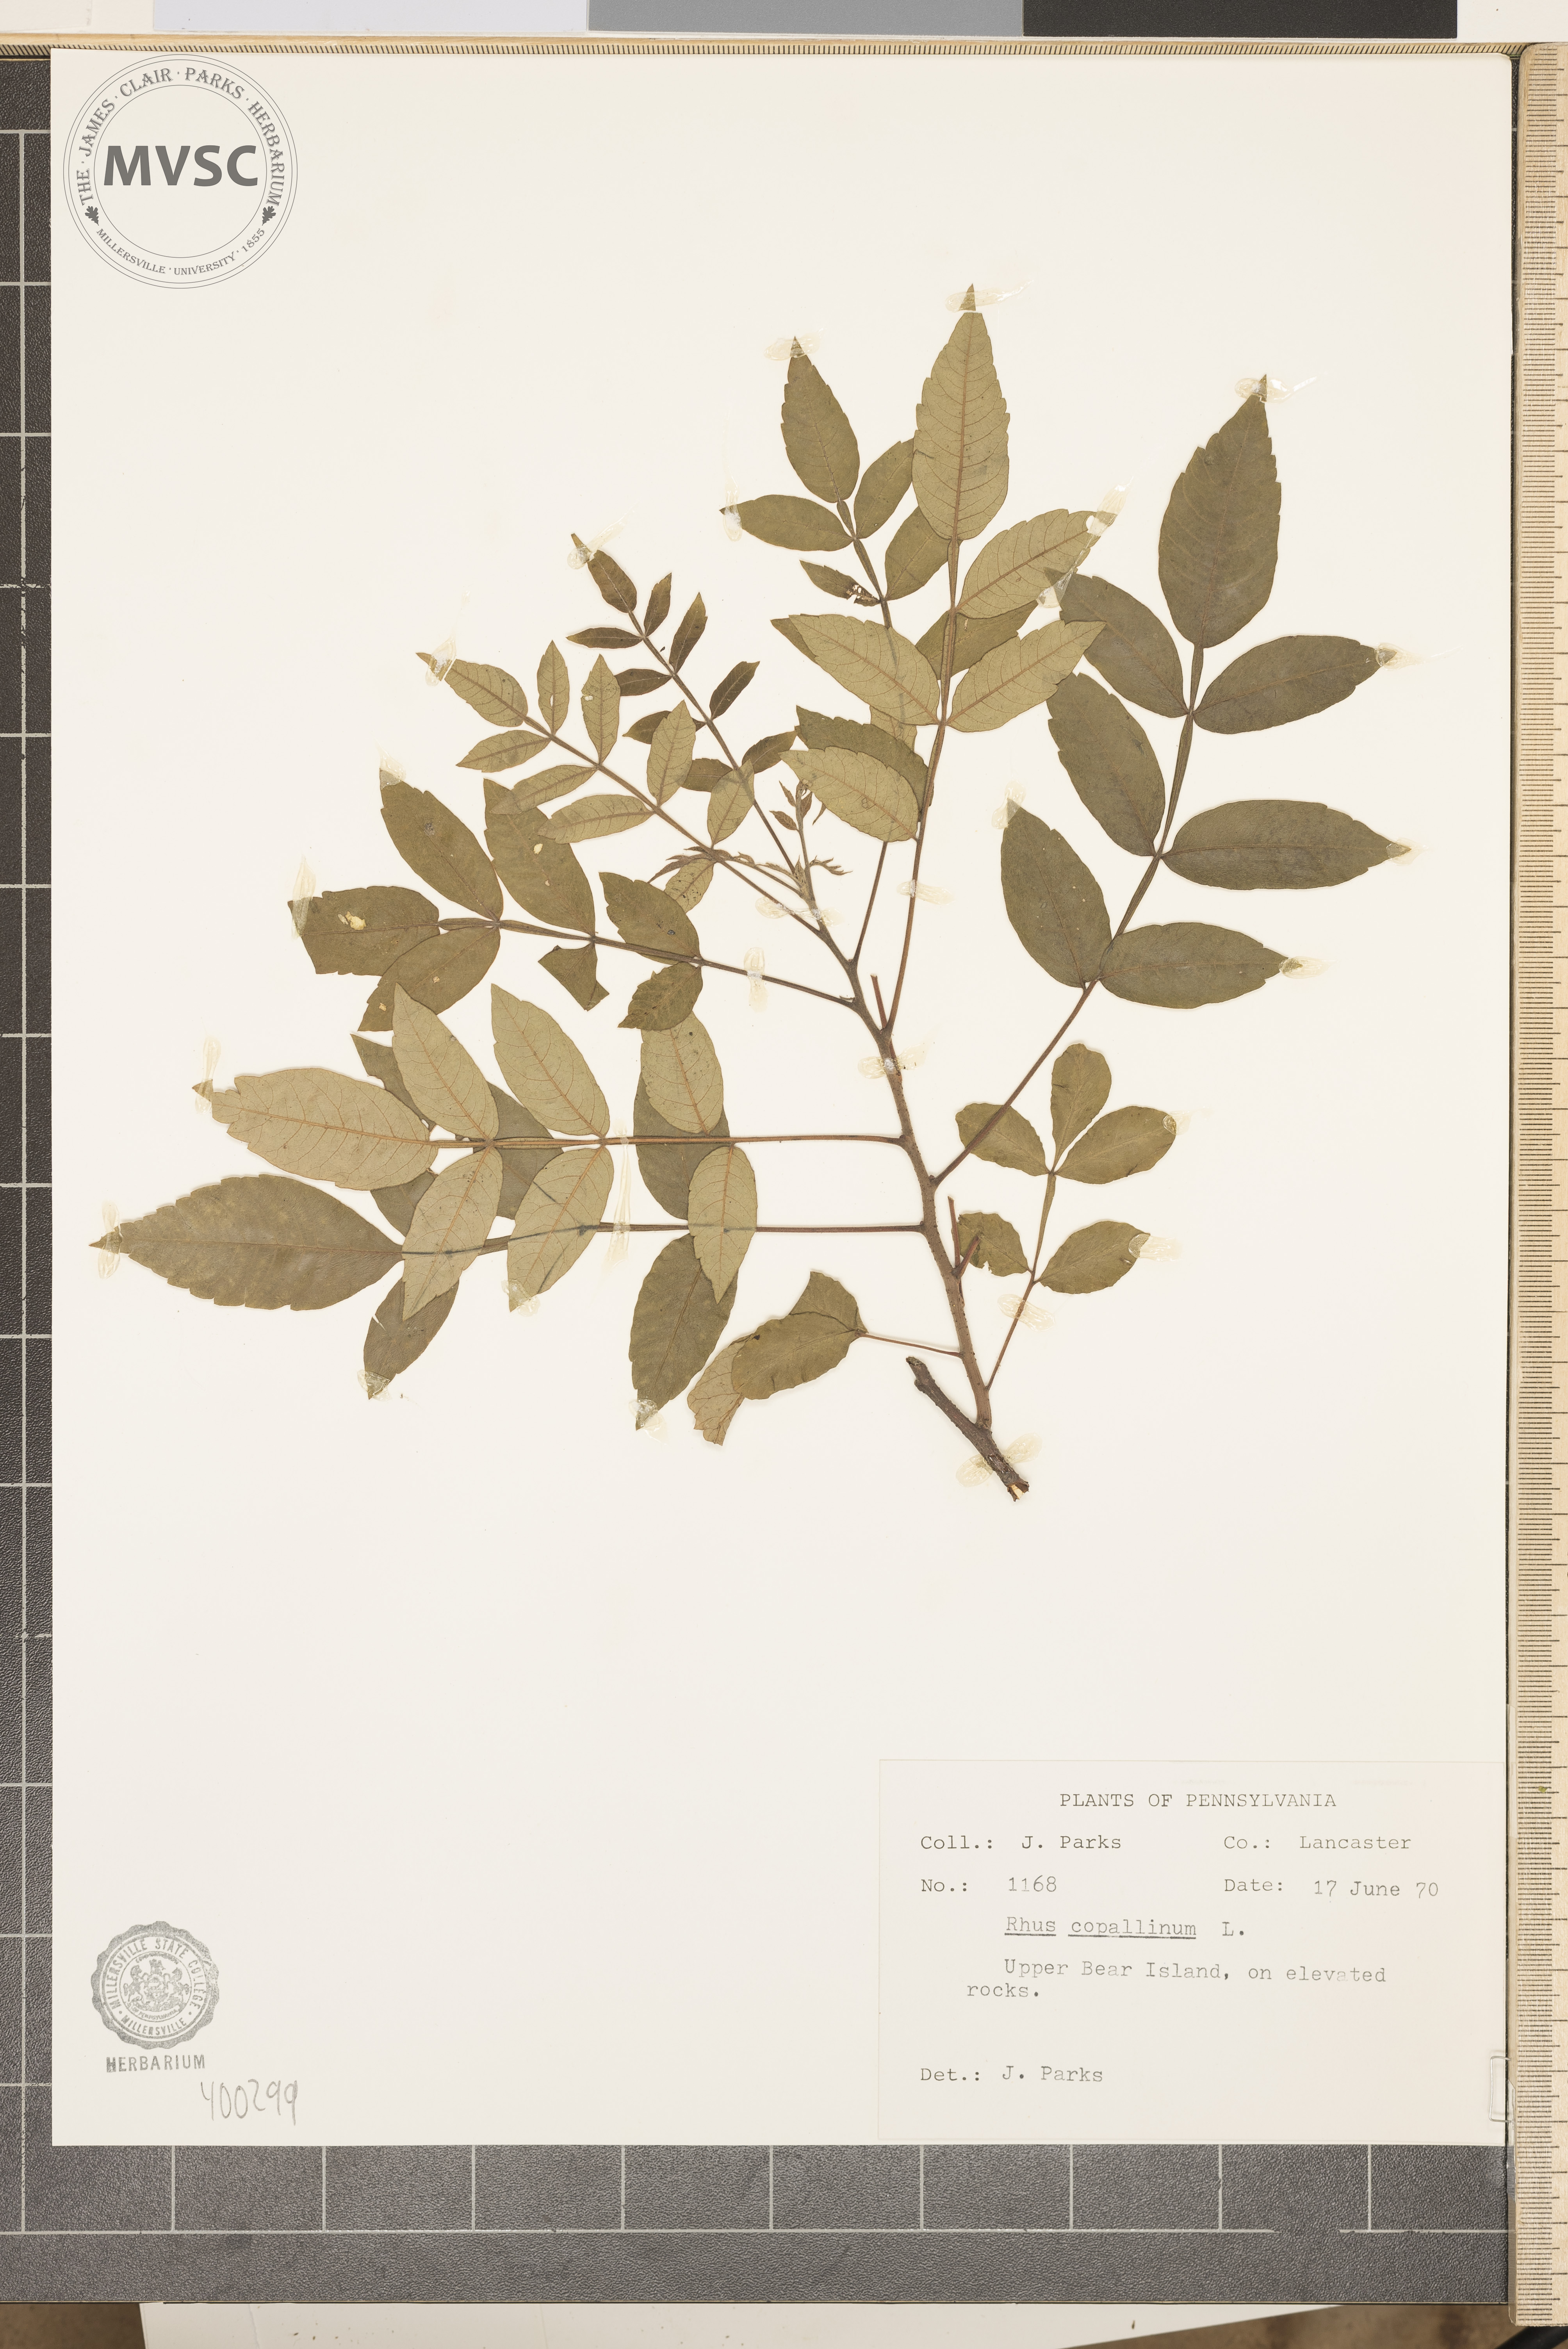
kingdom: Plantae
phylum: Tracheophyta
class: Magnoliopsida
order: Sapindales
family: Anacardiaceae
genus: Rhus
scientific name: Rhus copallina
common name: sumac
